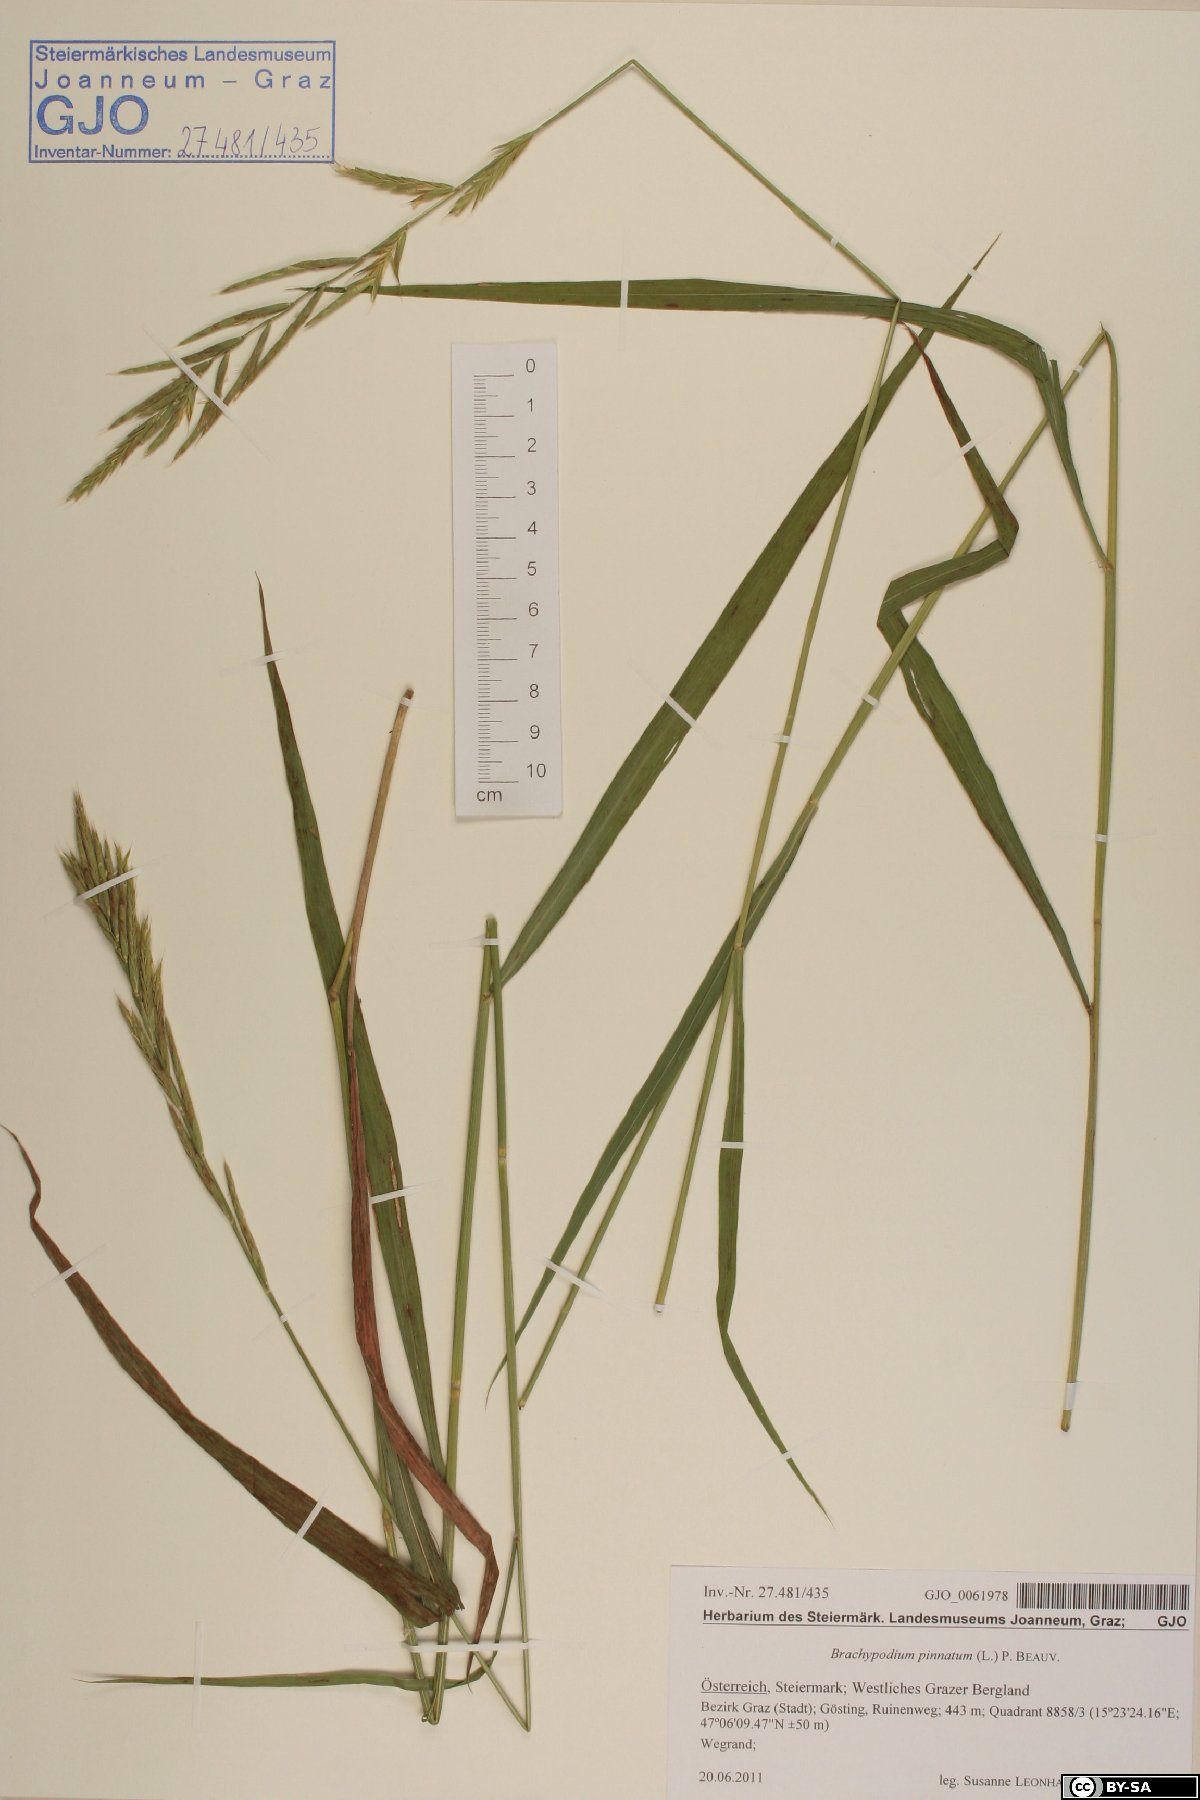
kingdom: Plantae
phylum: Tracheophyta
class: Liliopsida
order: Poales
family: Poaceae
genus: Brachypodium
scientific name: Brachypodium pinnatum
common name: Tor grass
